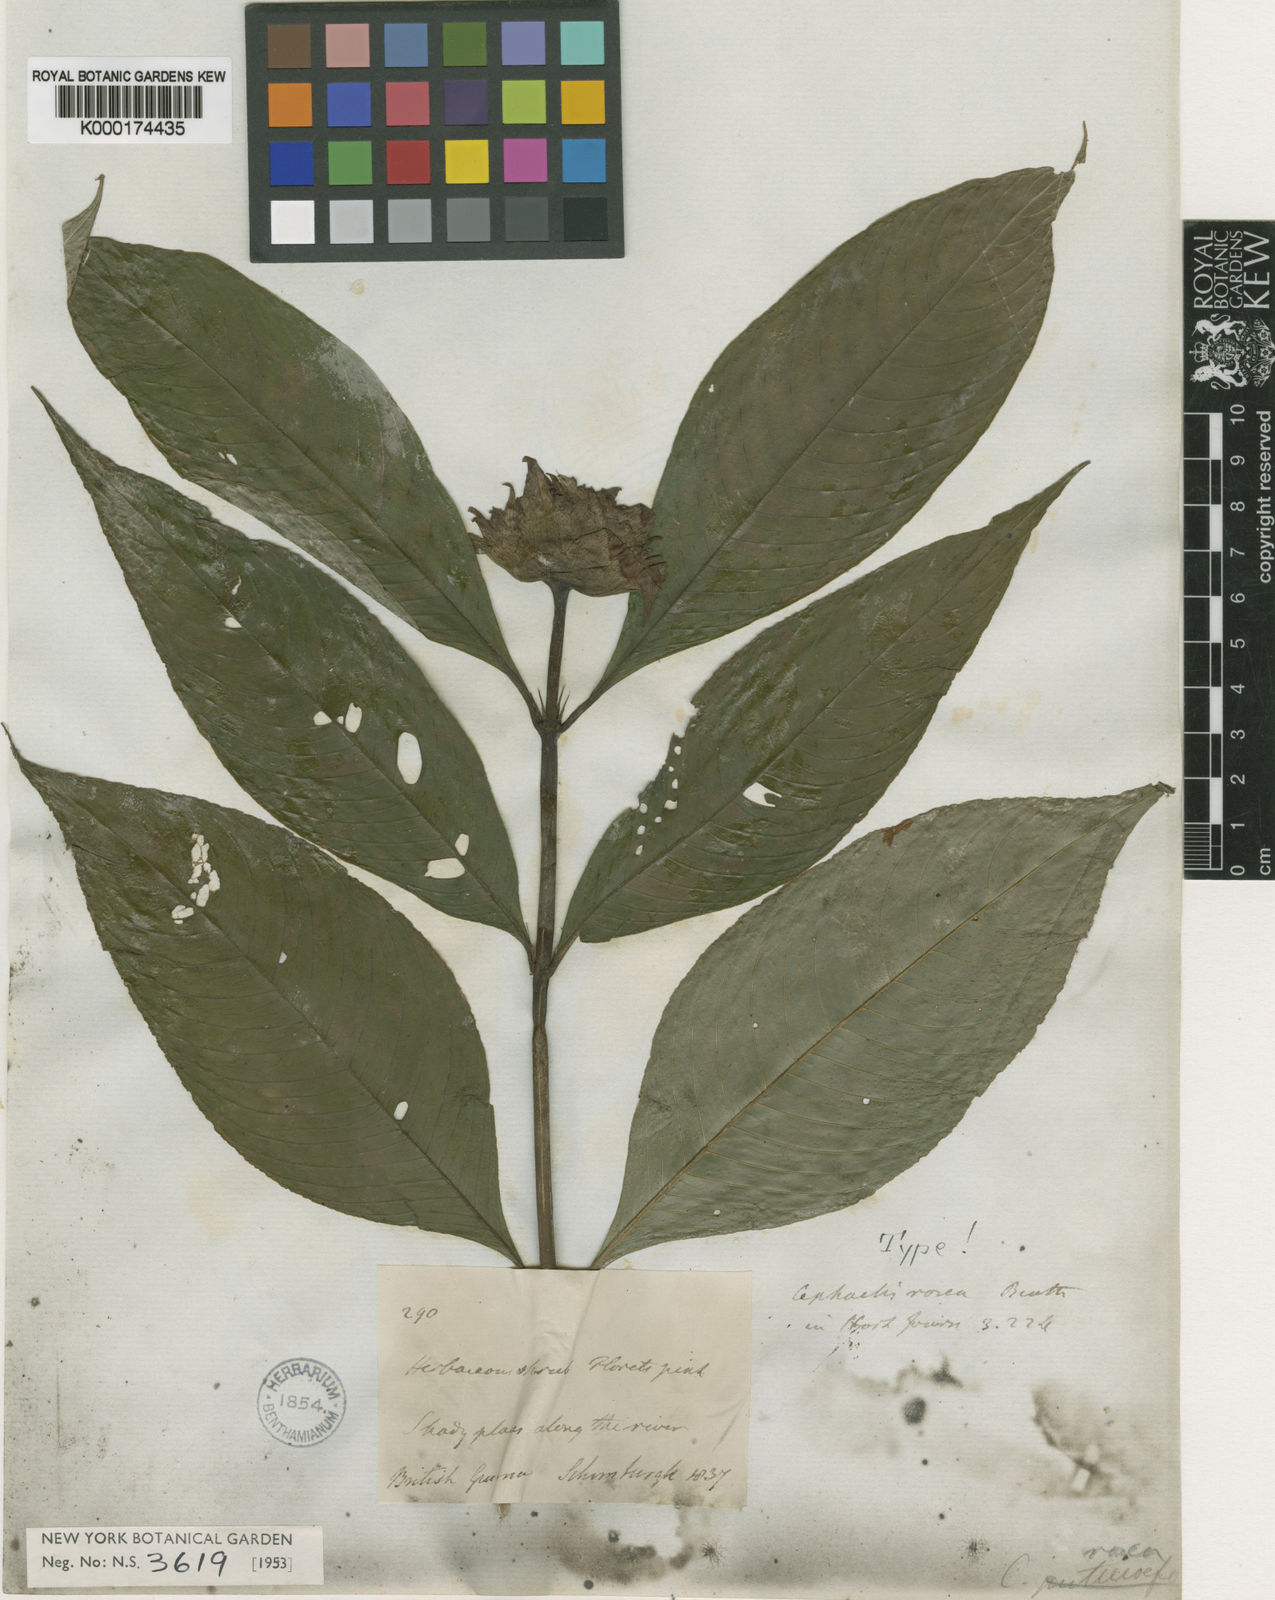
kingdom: Plantae
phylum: Tracheophyta
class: Magnoliopsida
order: Gentianales
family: Rubiaceae
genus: Psychotria
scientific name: Psychotria
